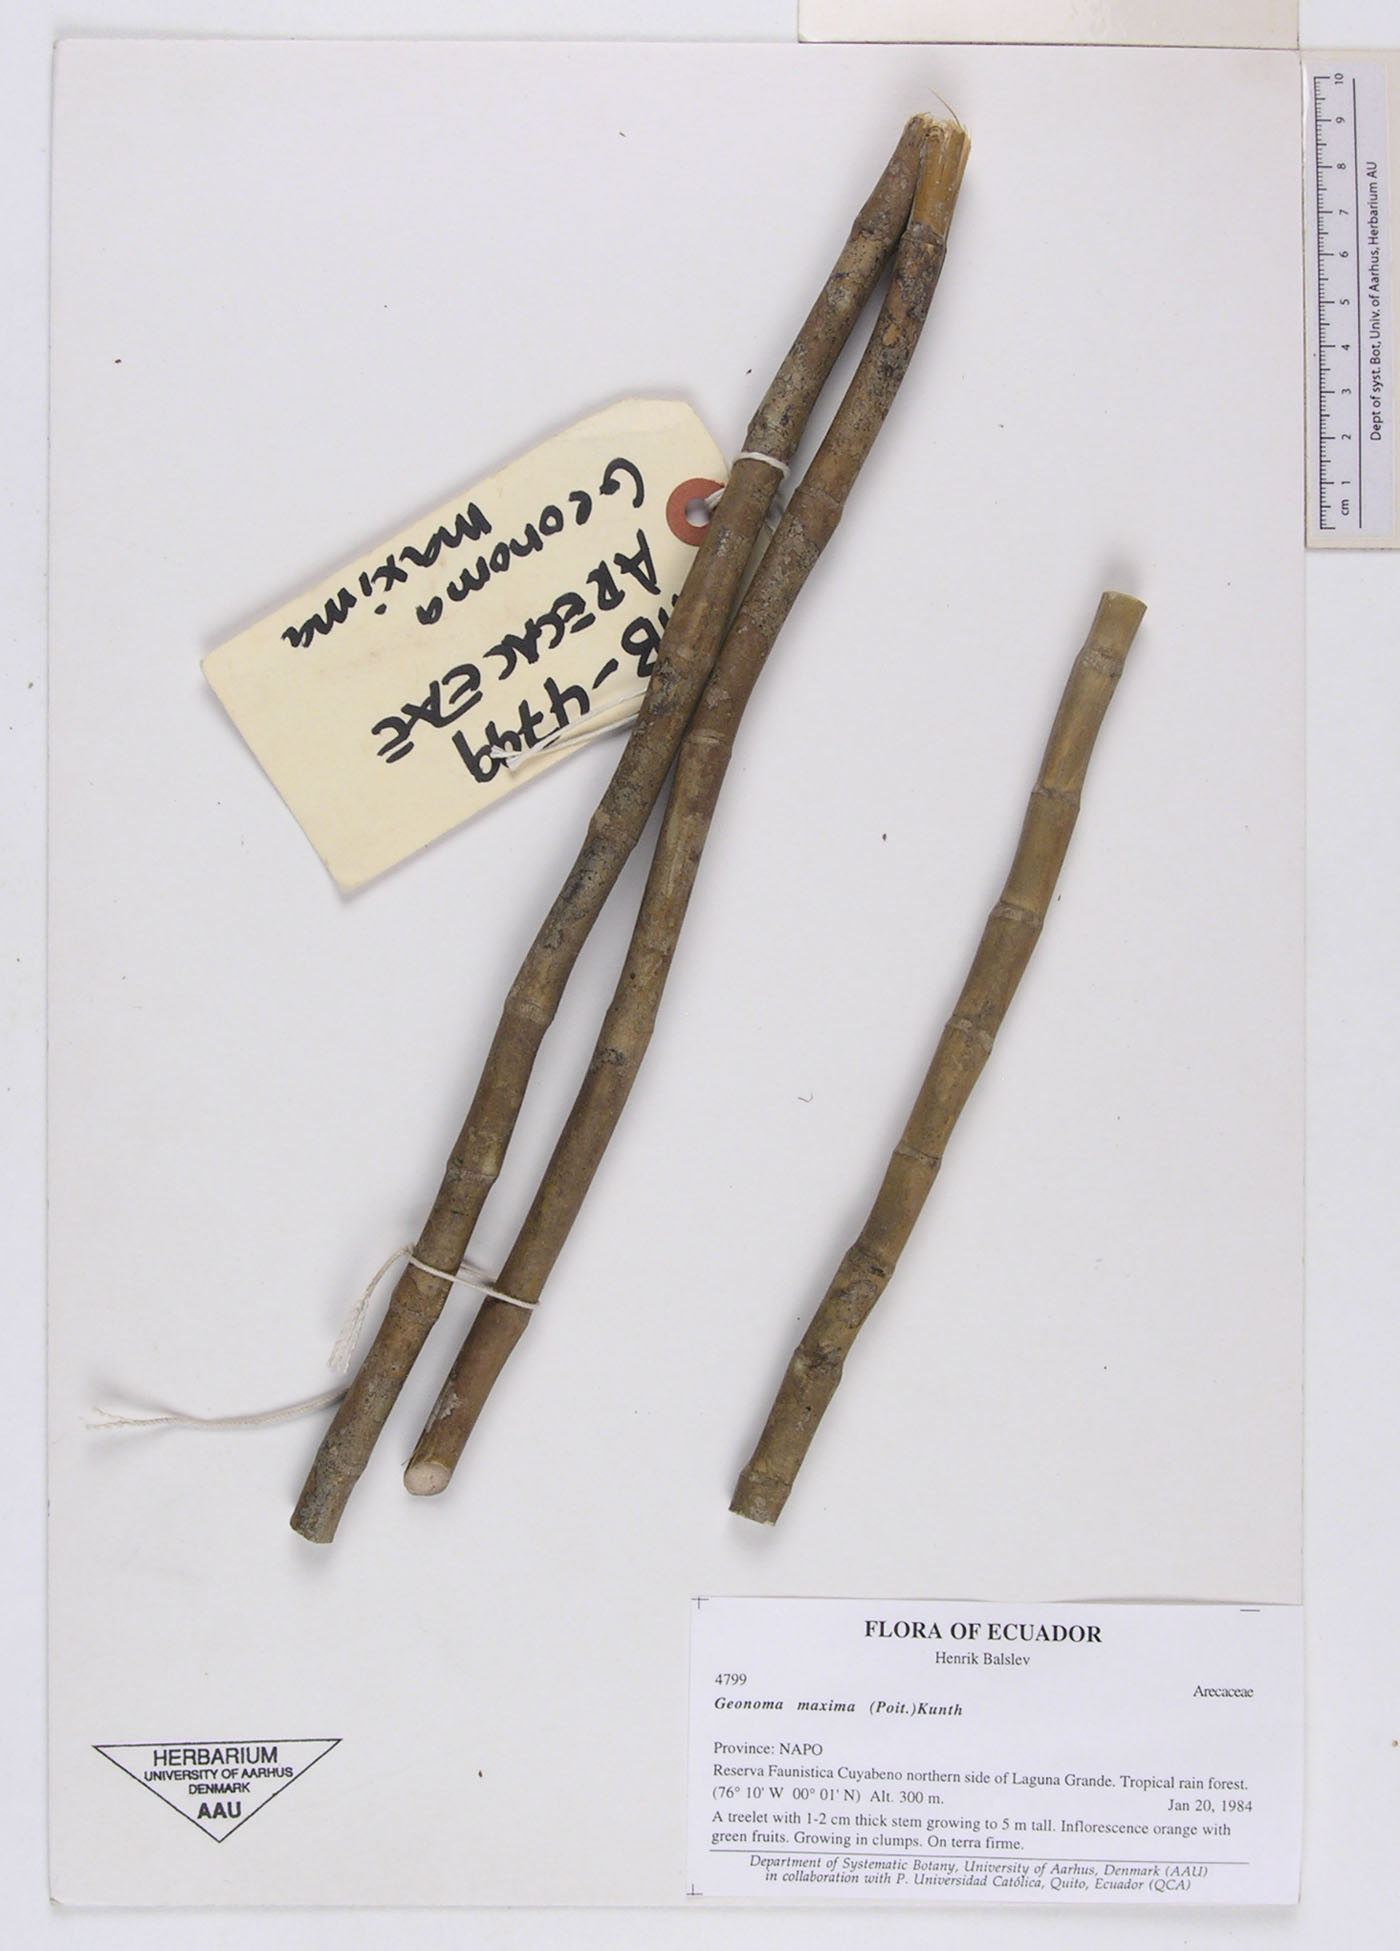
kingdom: Plantae
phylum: Tracheophyta
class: Liliopsida
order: Arecales
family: Arecaceae
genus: Geonoma
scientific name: Geonoma maxima
